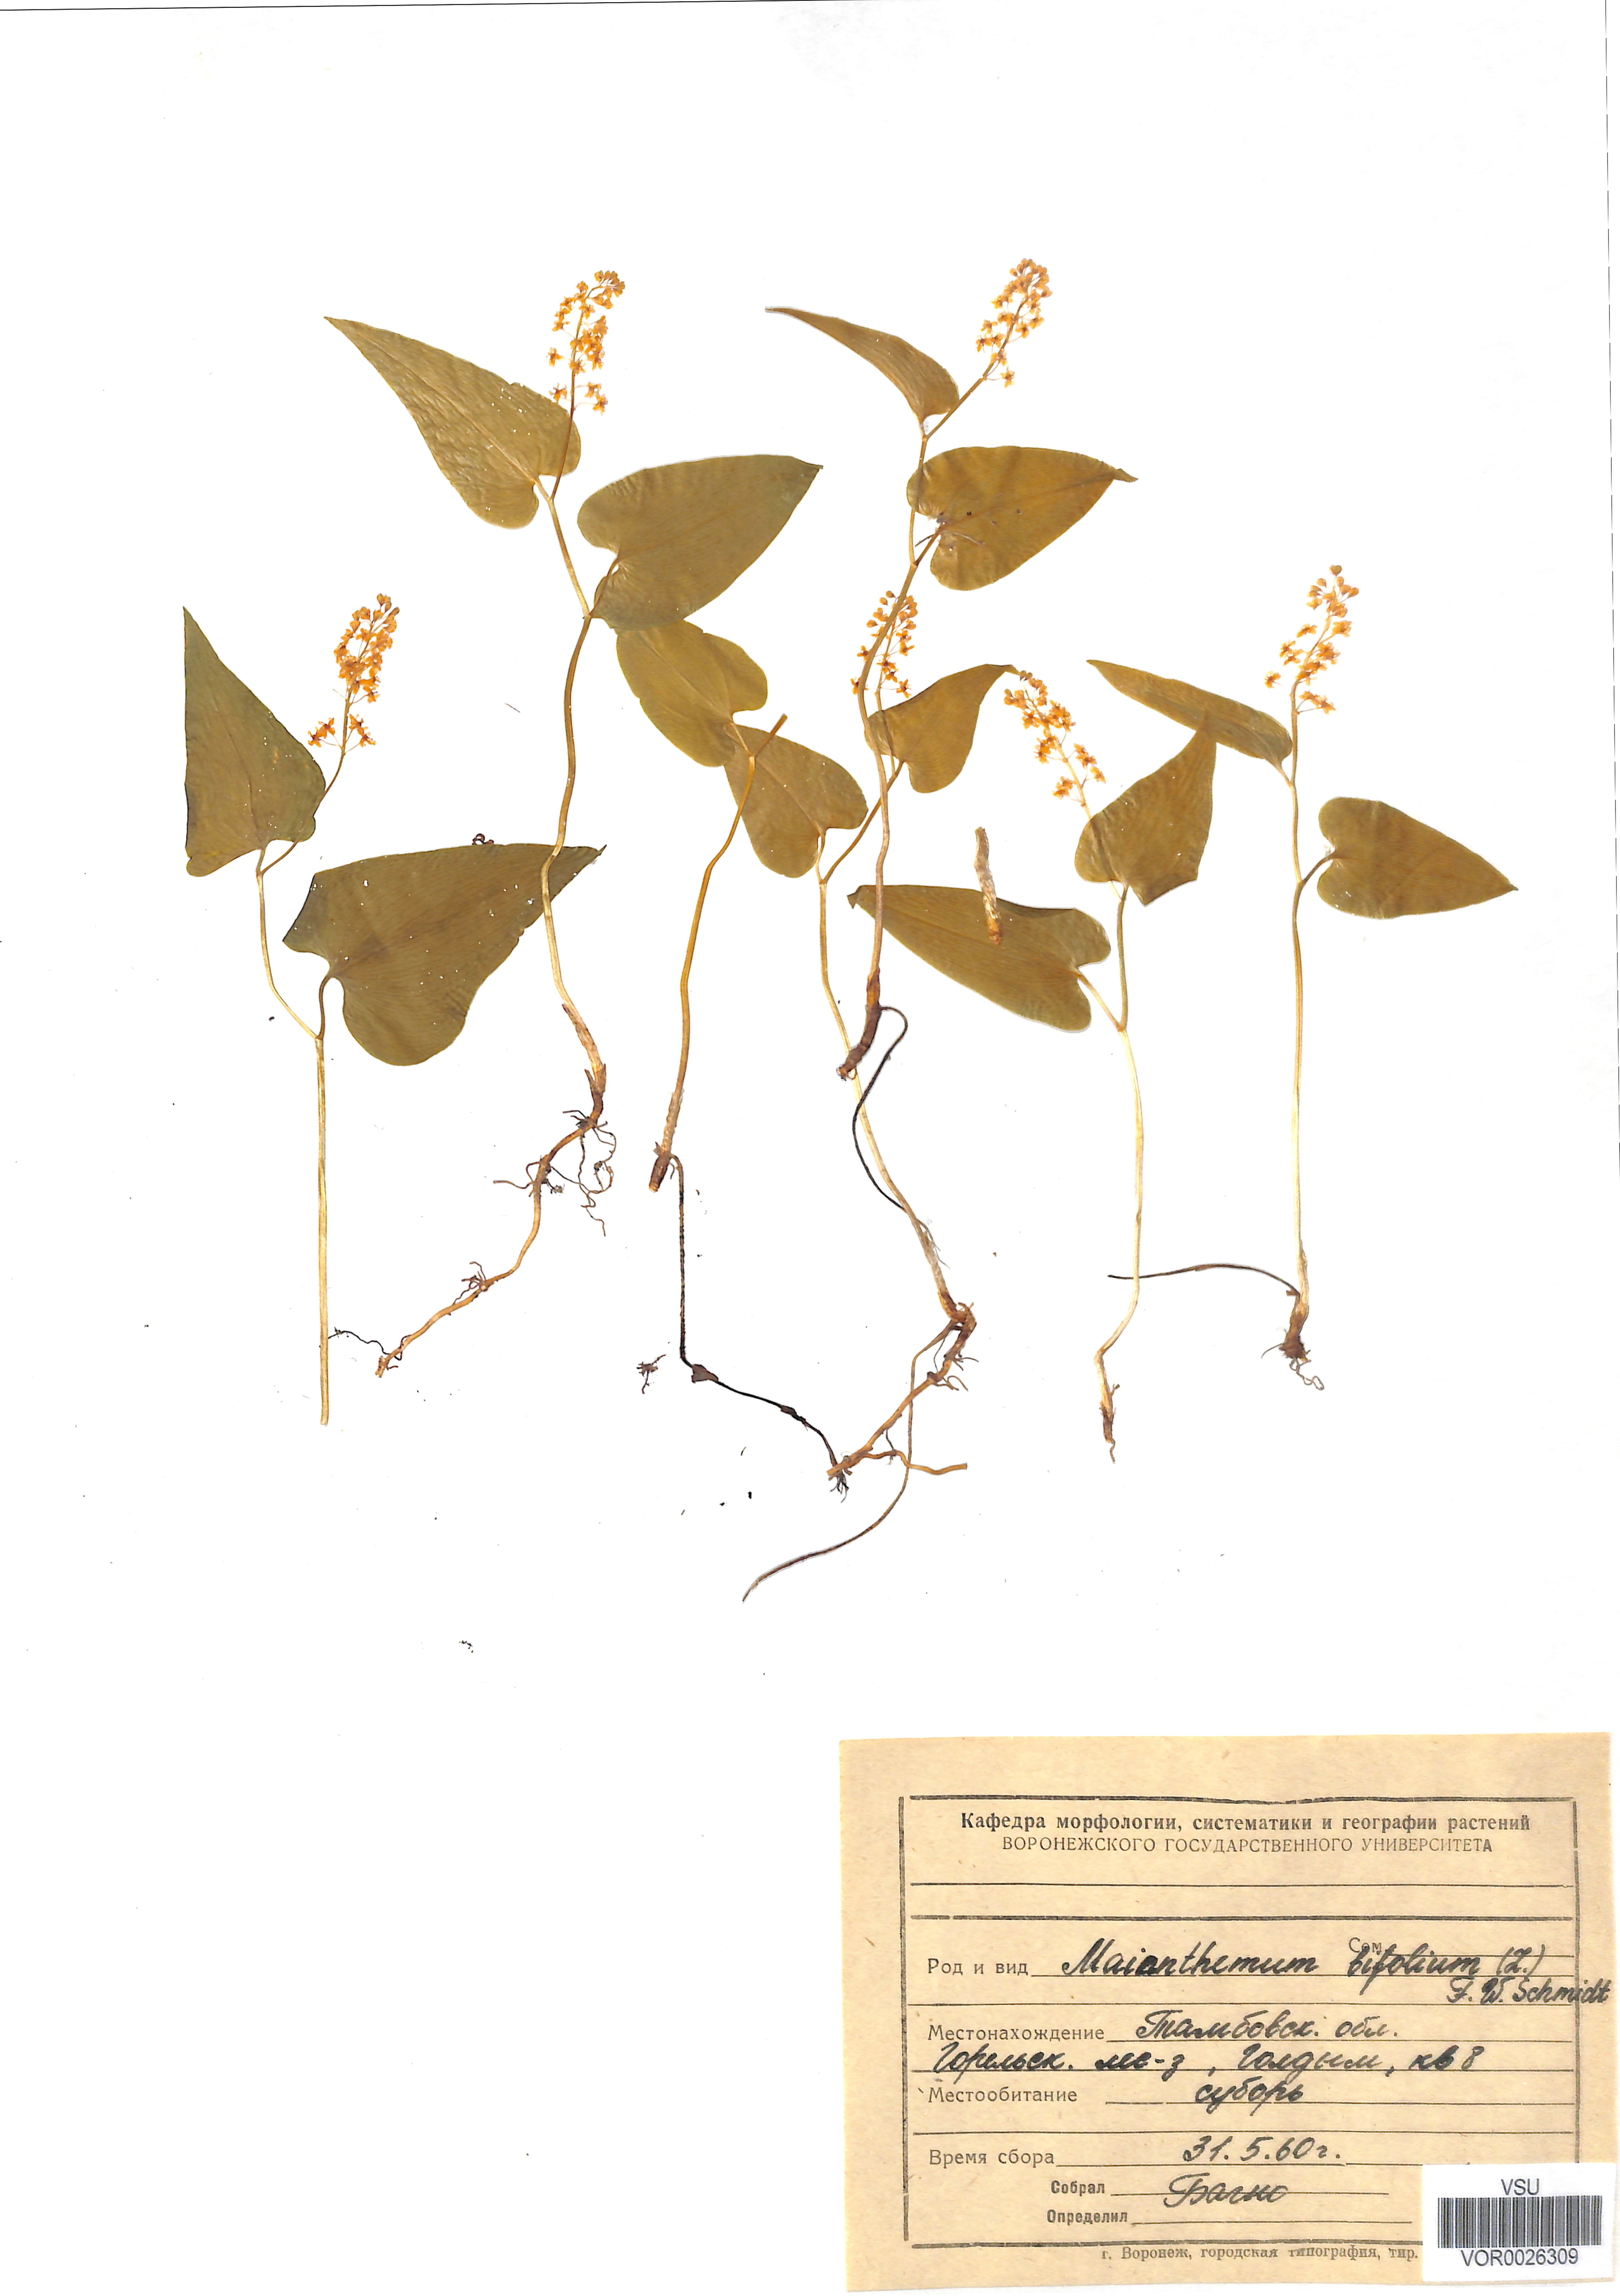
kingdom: Plantae
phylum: Tracheophyta
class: Liliopsida
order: Asparagales
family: Asparagaceae
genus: Maianthemum
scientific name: Maianthemum bifolium
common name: May lily
